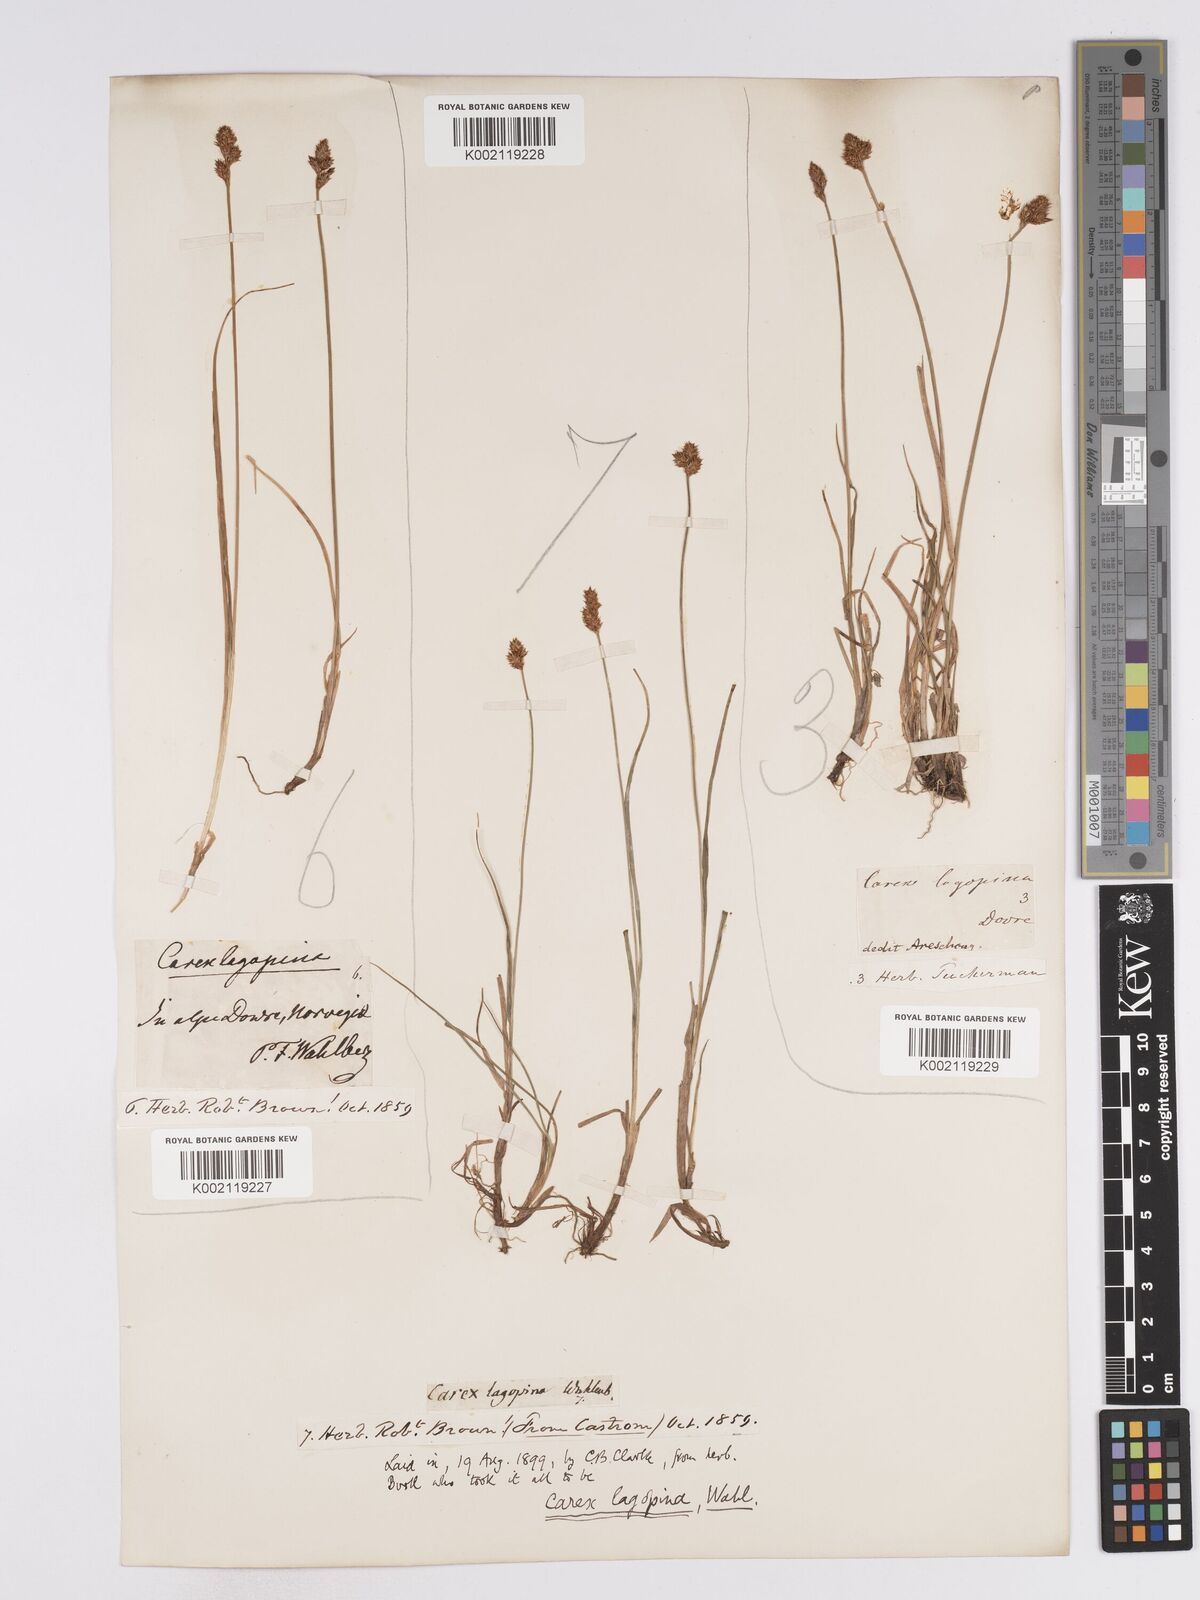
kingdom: Plantae
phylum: Tracheophyta
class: Liliopsida
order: Poales
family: Cyperaceae
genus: Carex
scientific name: Carex lachenalii
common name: Hare's-foot sedge
